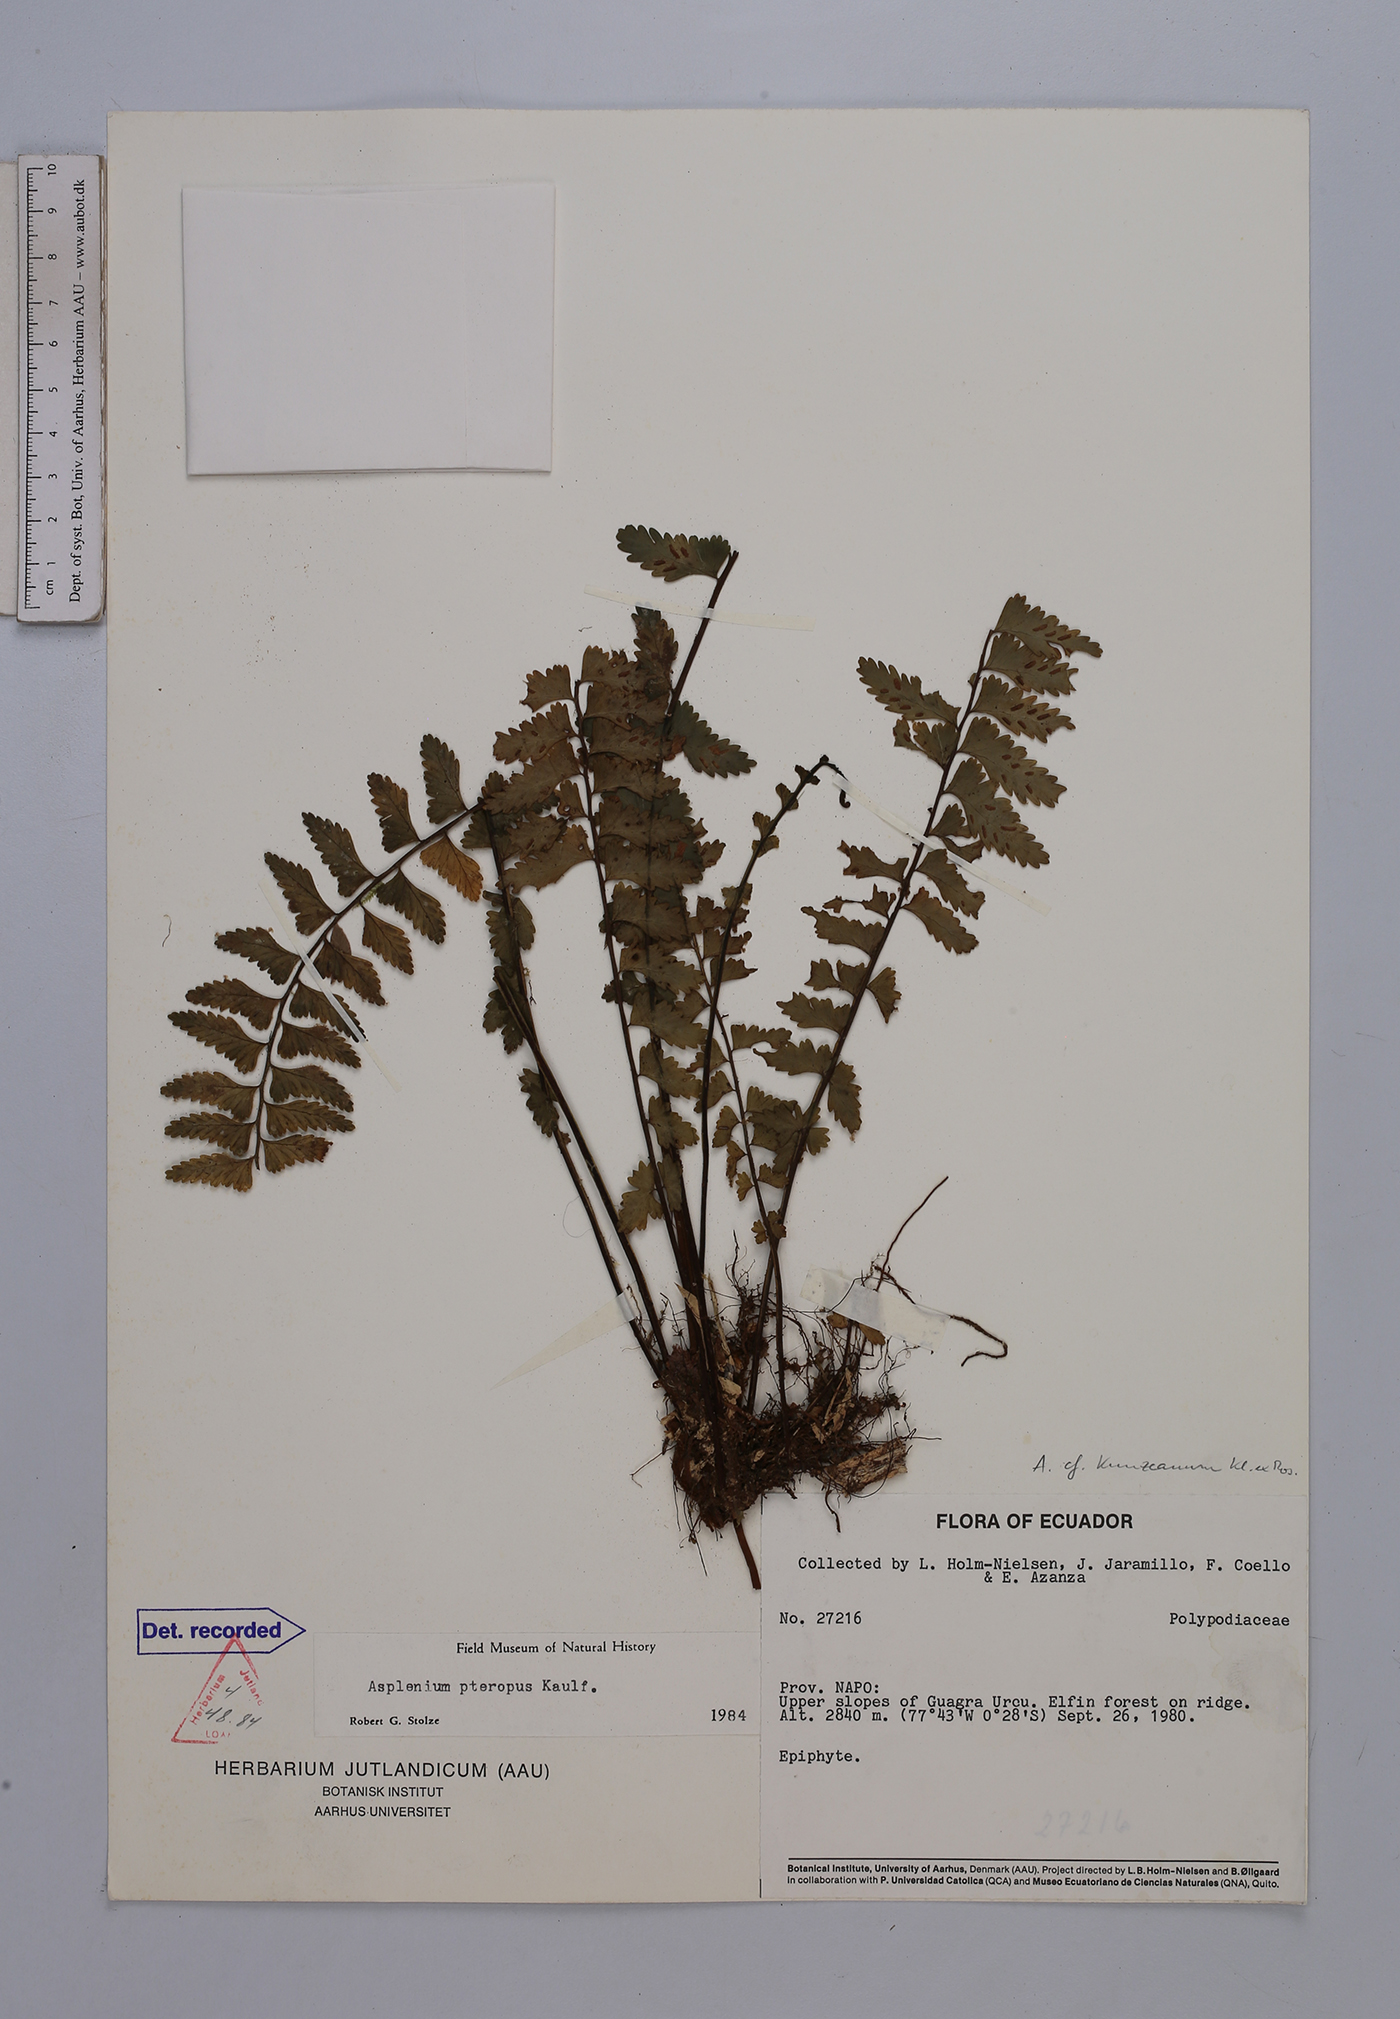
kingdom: Plantae
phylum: Tracheophyta
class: Polypodiopsida
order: Polypodiales
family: Aspleniaceae
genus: Asplenium
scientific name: Asplenium pteropus
